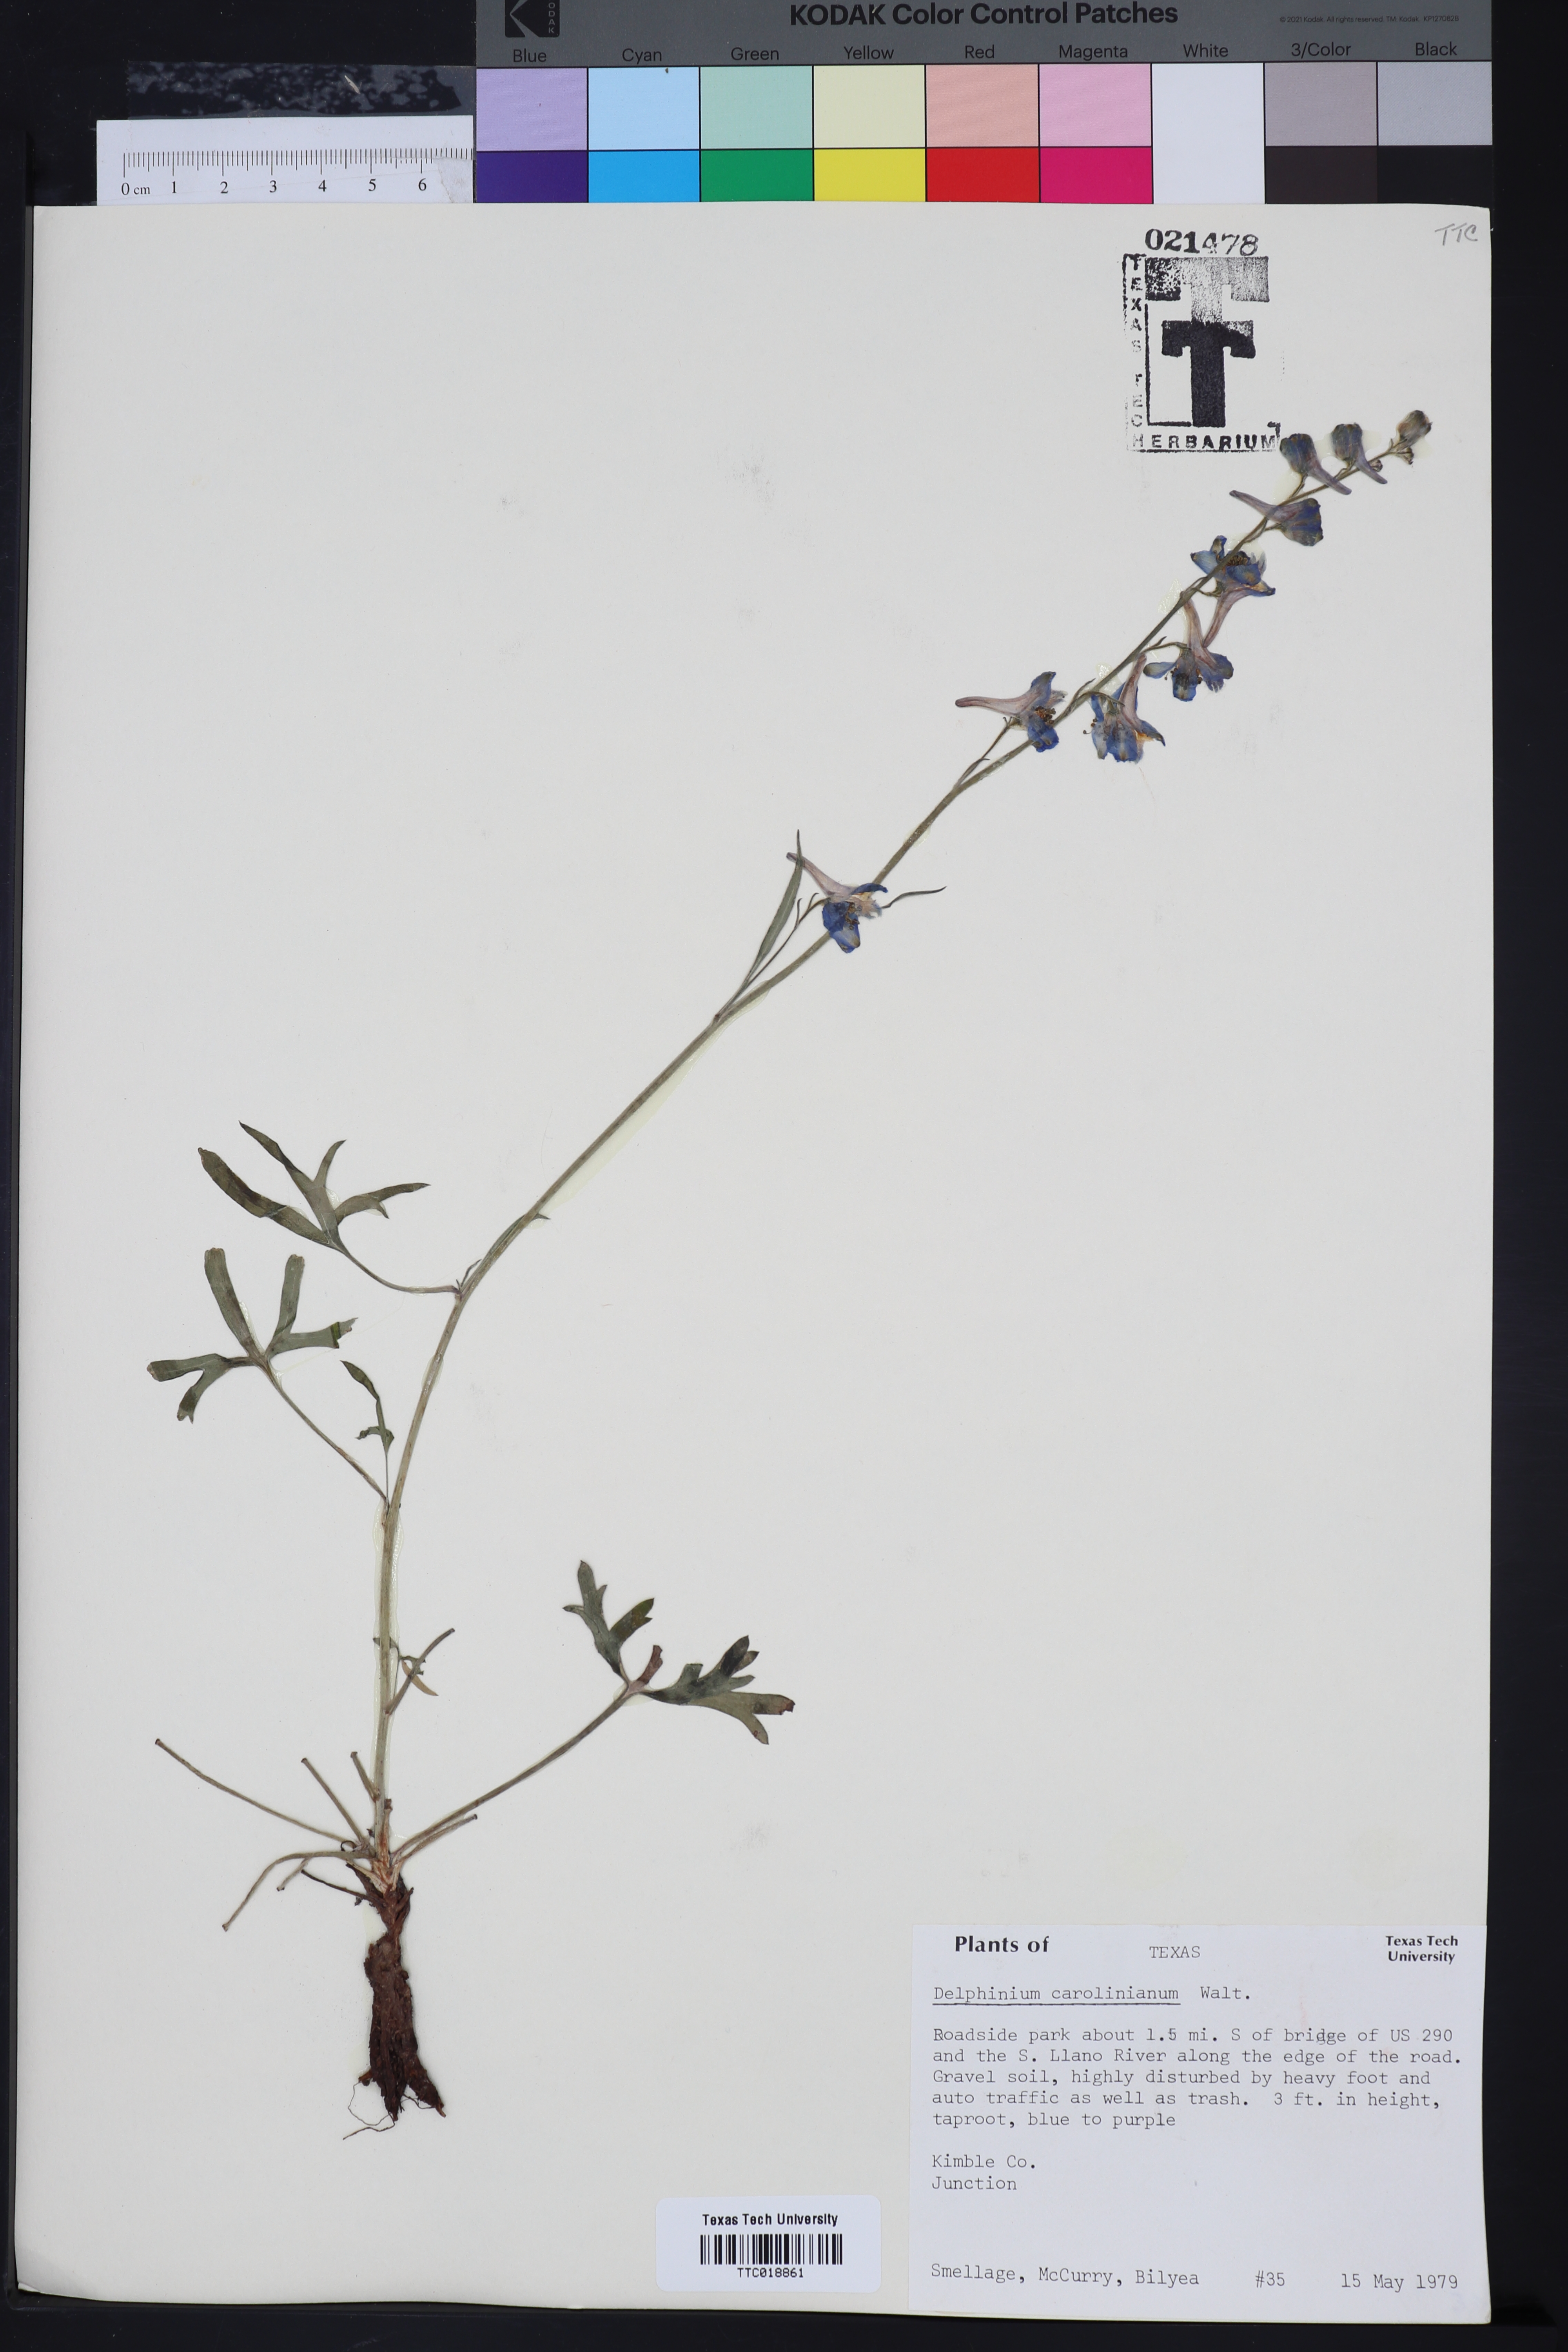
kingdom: Plantae
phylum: Tracheophyta
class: Magnoliopsida
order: Ranunculales
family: Ranunculaceae
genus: Delphinium
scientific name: Delphinium carolinianum
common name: Carolina larkspur
